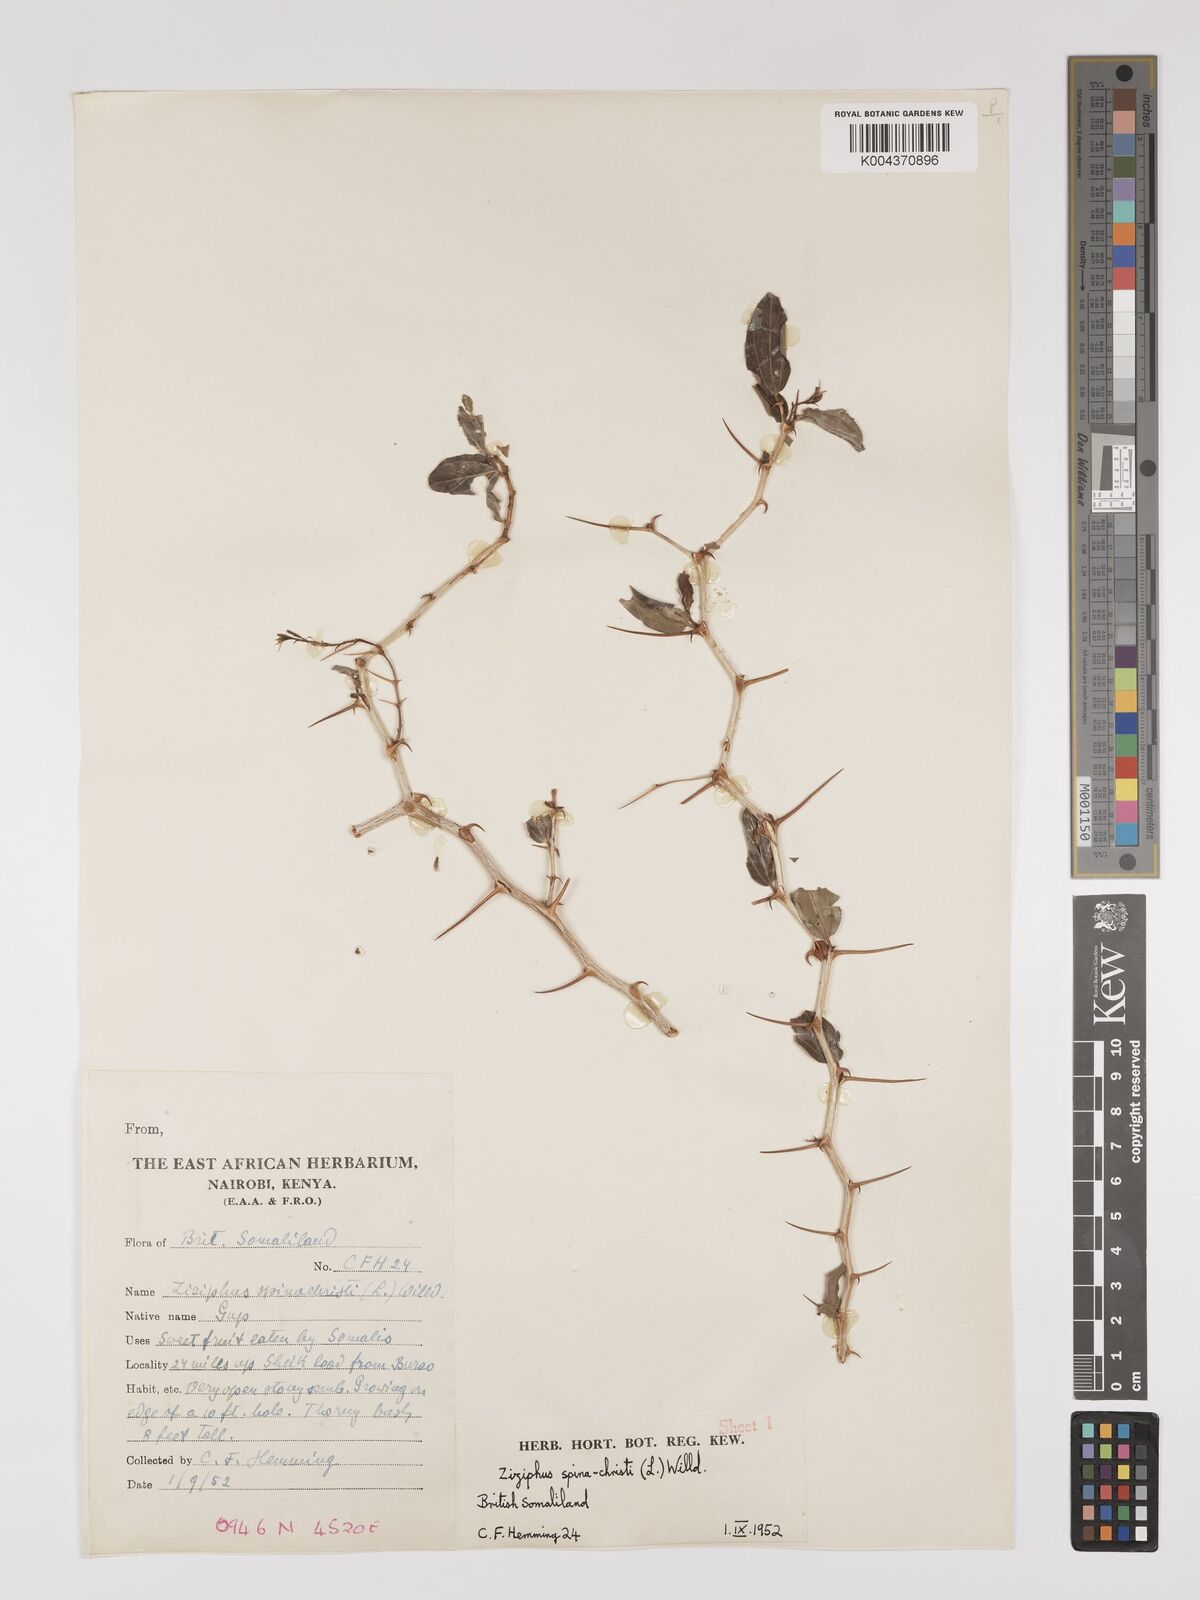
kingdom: Plantae
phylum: Tracheophyta
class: Magnoliopsida
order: Rosales
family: Rhamnaceae
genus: Ziziphus
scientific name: Ziziphus spina-christi
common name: Syrian christ-thorn
